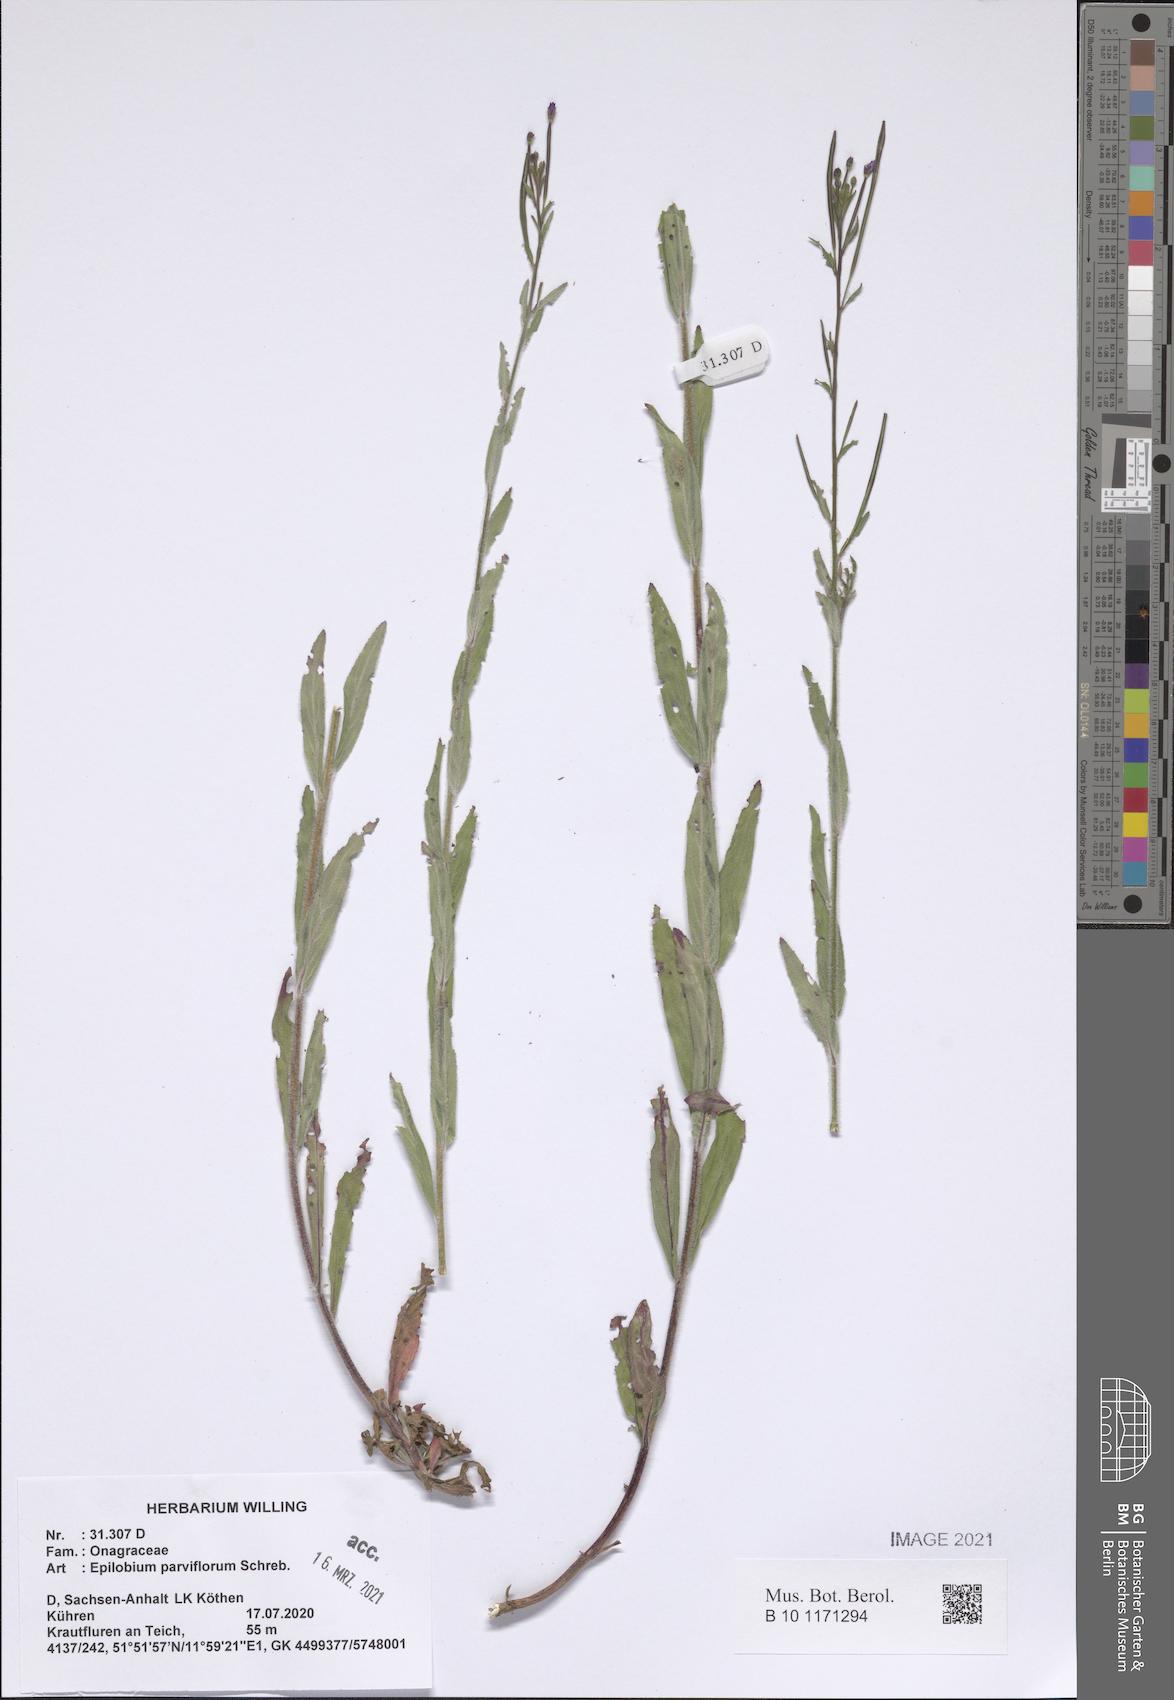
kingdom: Plantae
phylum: Tracheophyta
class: Magnoliopsida
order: Myrtales
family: Onagraceae
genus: Epilobium
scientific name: Epilobium parviflorum
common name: Hoary willowherb
